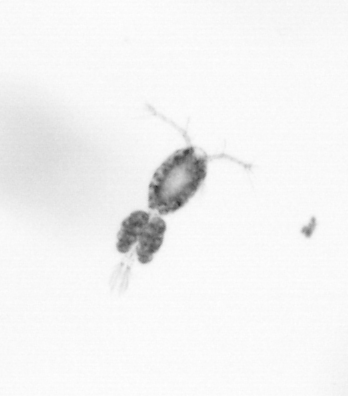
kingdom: Animalia
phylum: Arthropoda
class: Copepoda
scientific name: Copepoda
